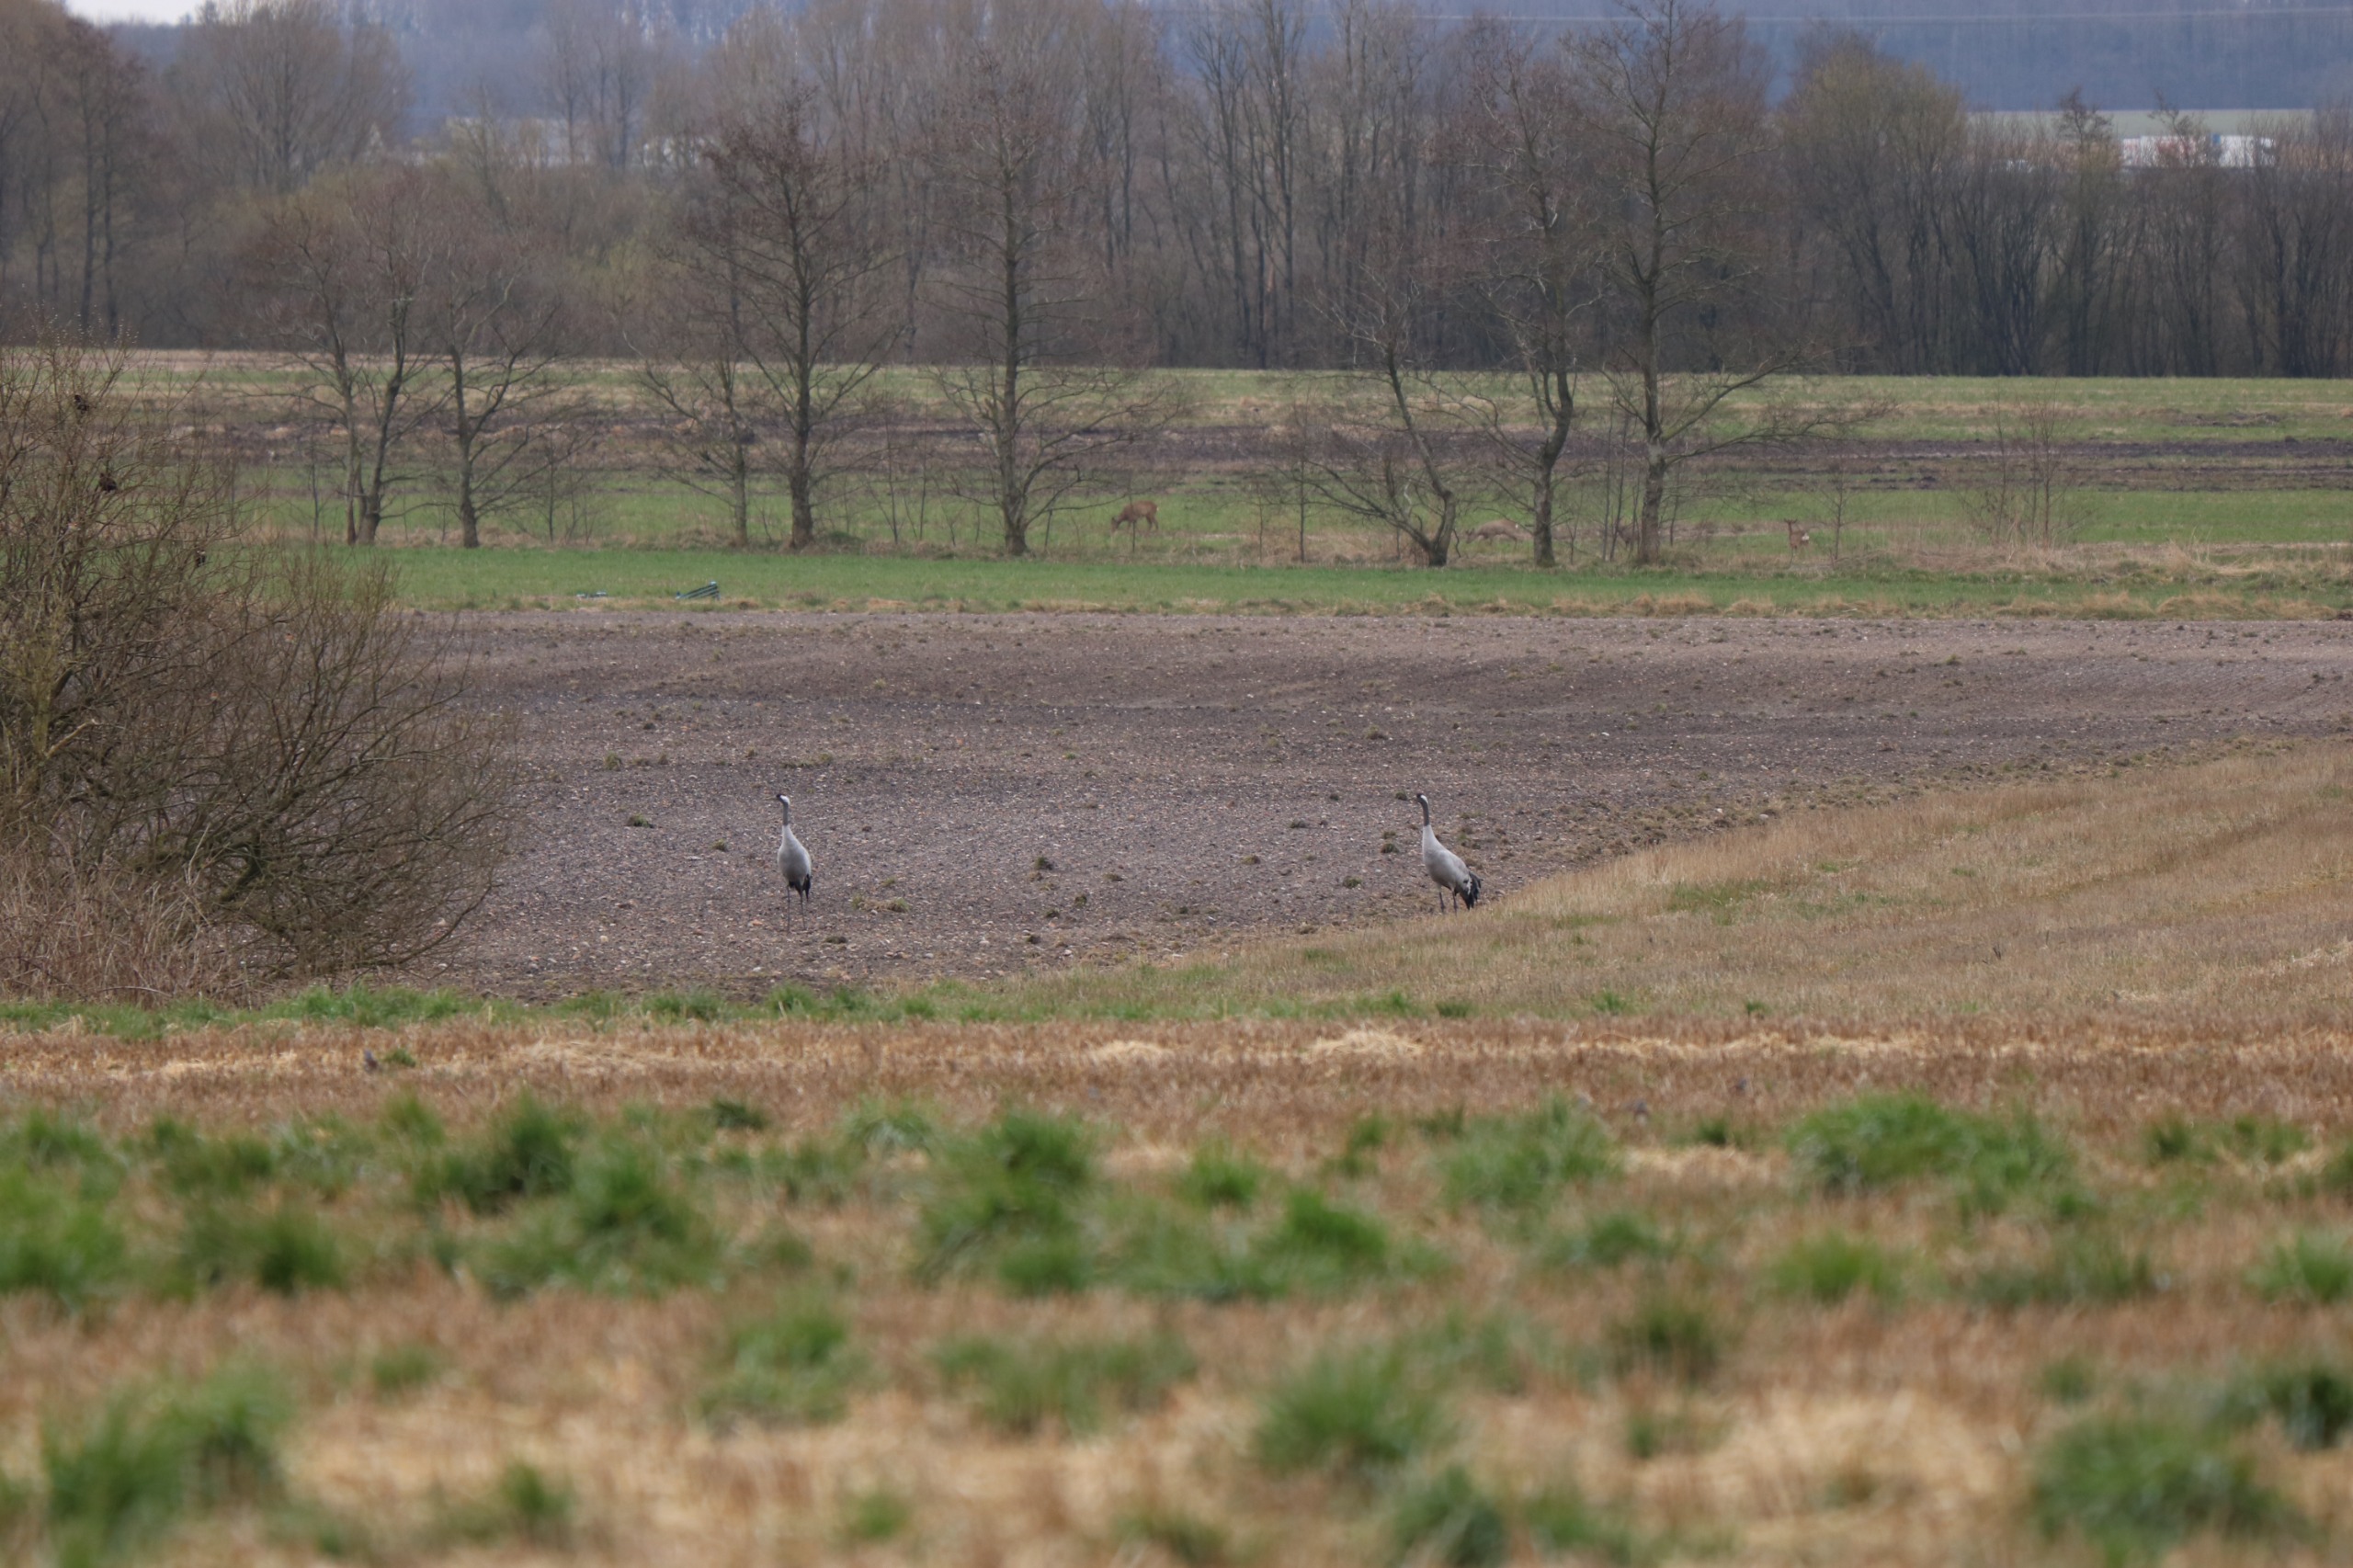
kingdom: Animalia
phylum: Chordata
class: Aves
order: Gruiformes
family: Gruidae
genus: Grus
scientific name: Grus grus
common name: Trane
